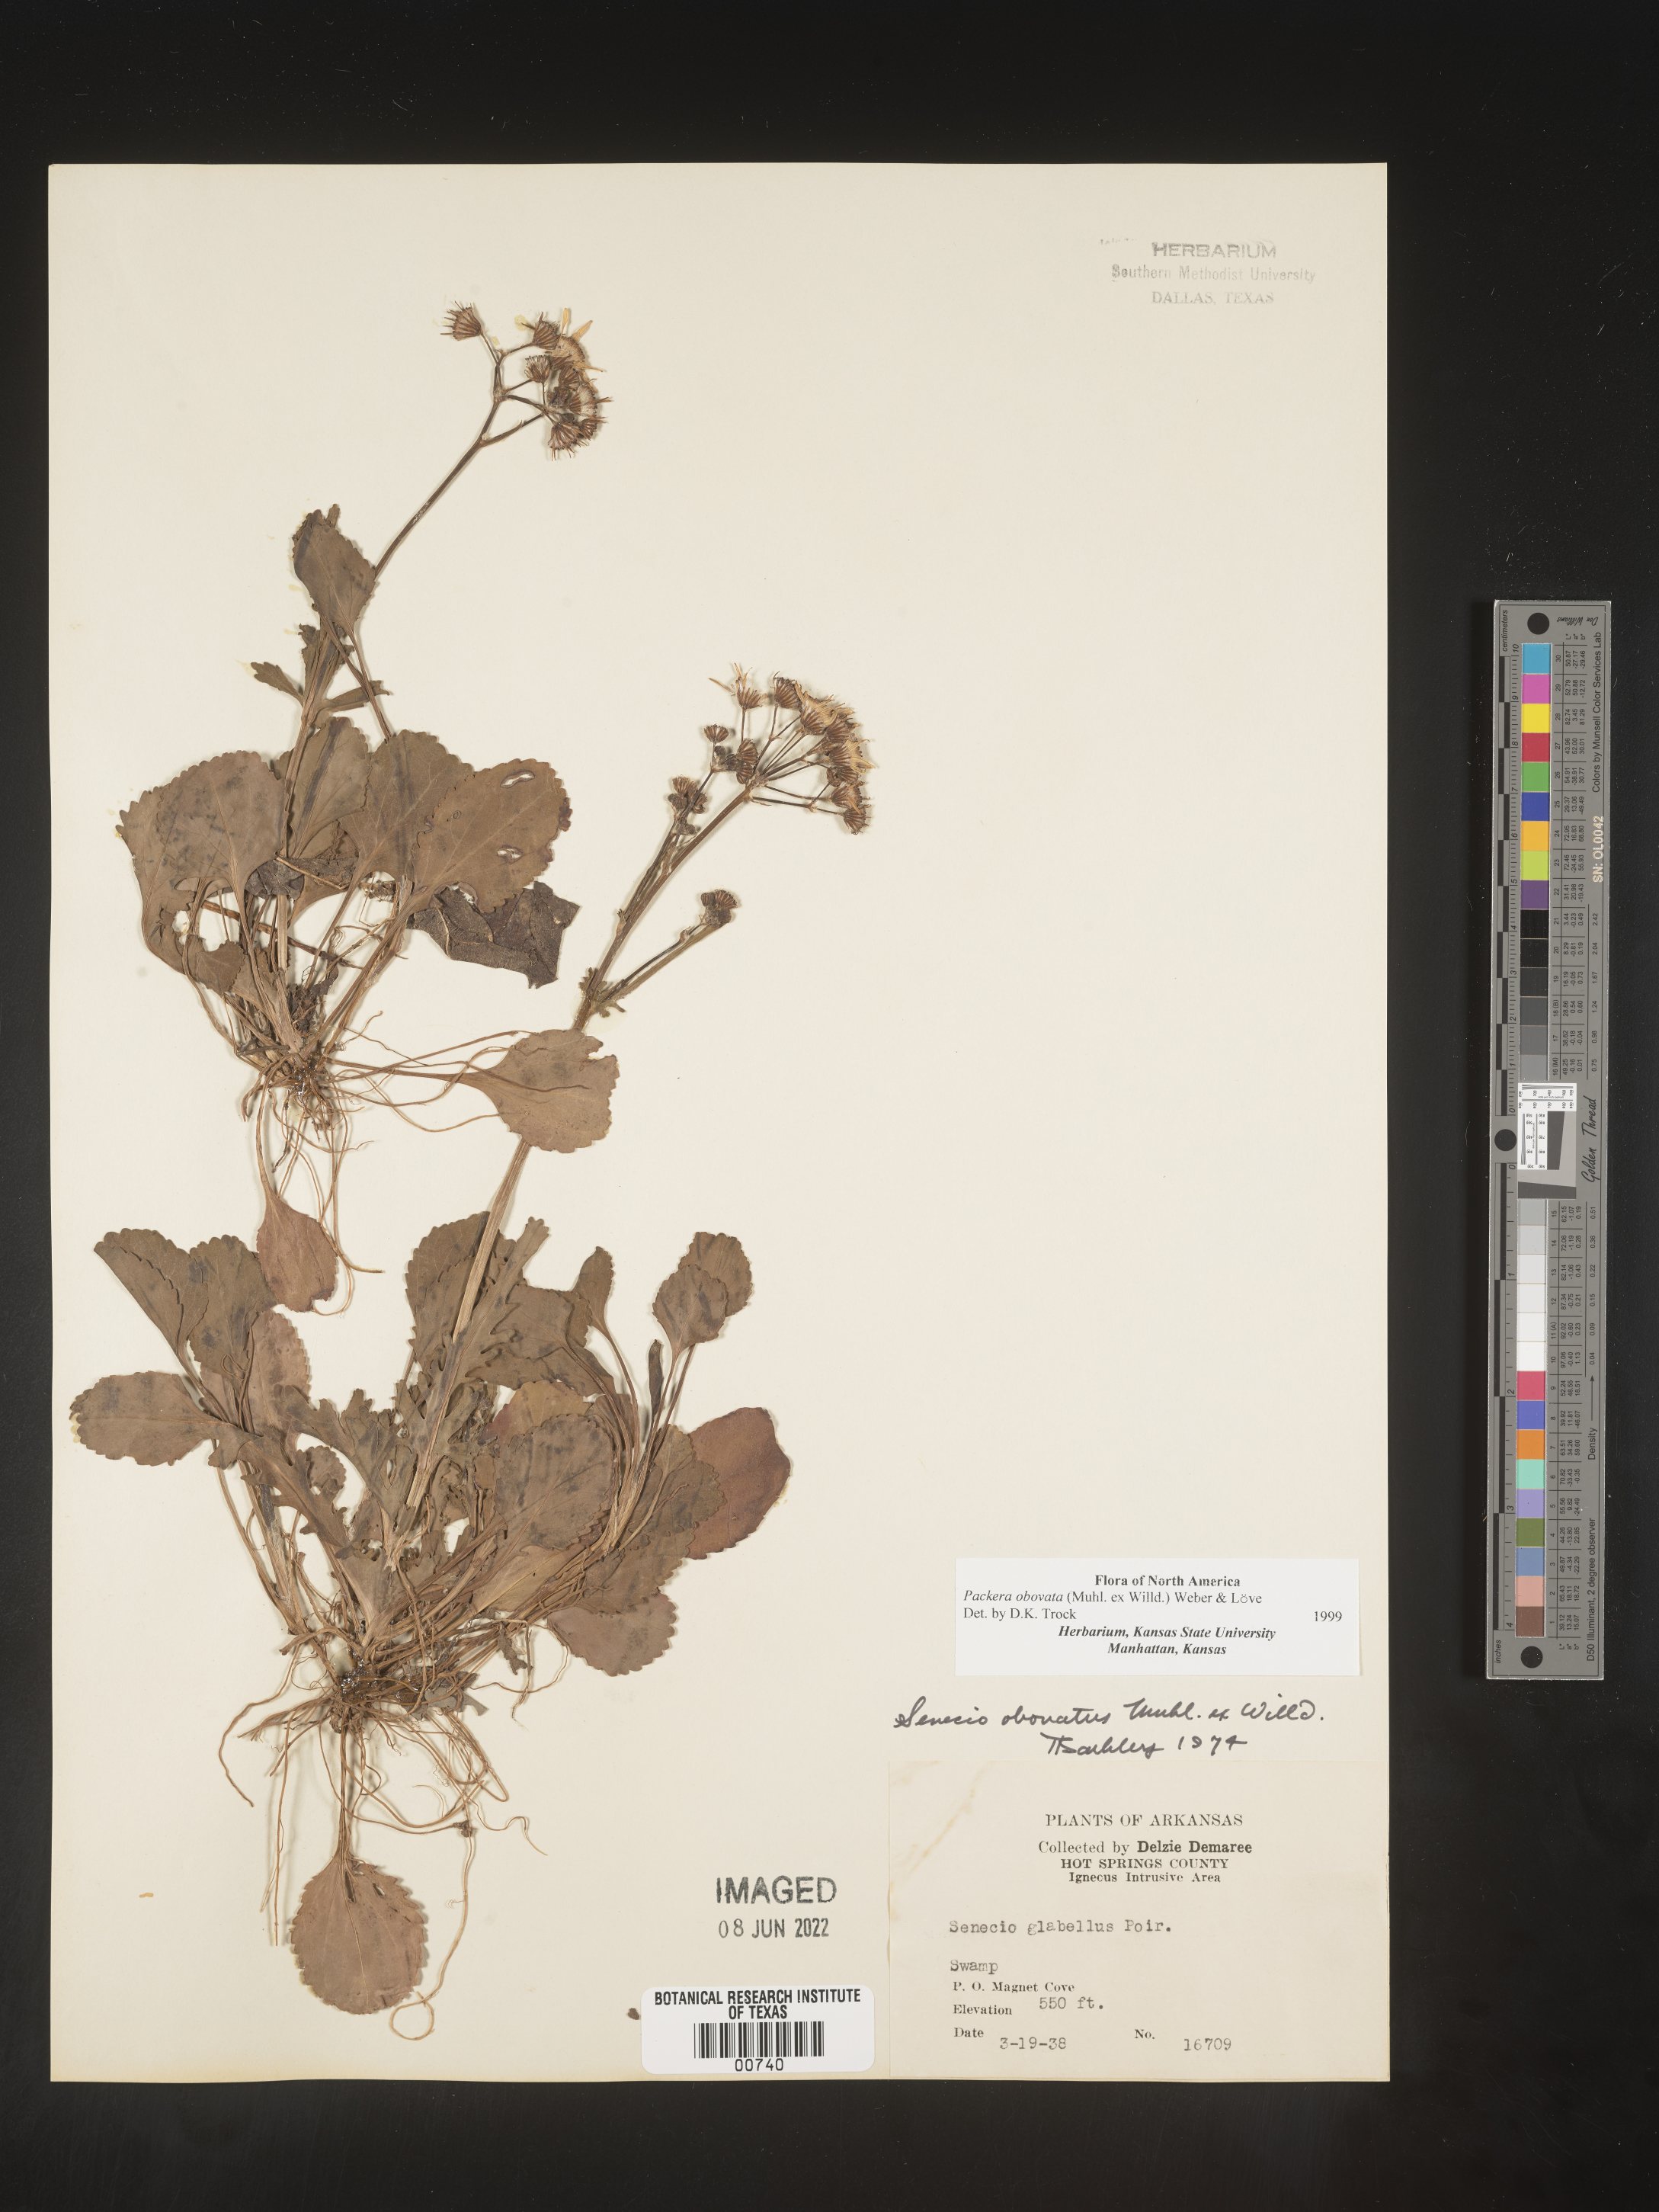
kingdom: Plantae
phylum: Tracheophyta
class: Magnoliopsida
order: Asterales
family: Asteraceae
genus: Packera
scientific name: Packera obovata
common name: Round-leaf ragwort
